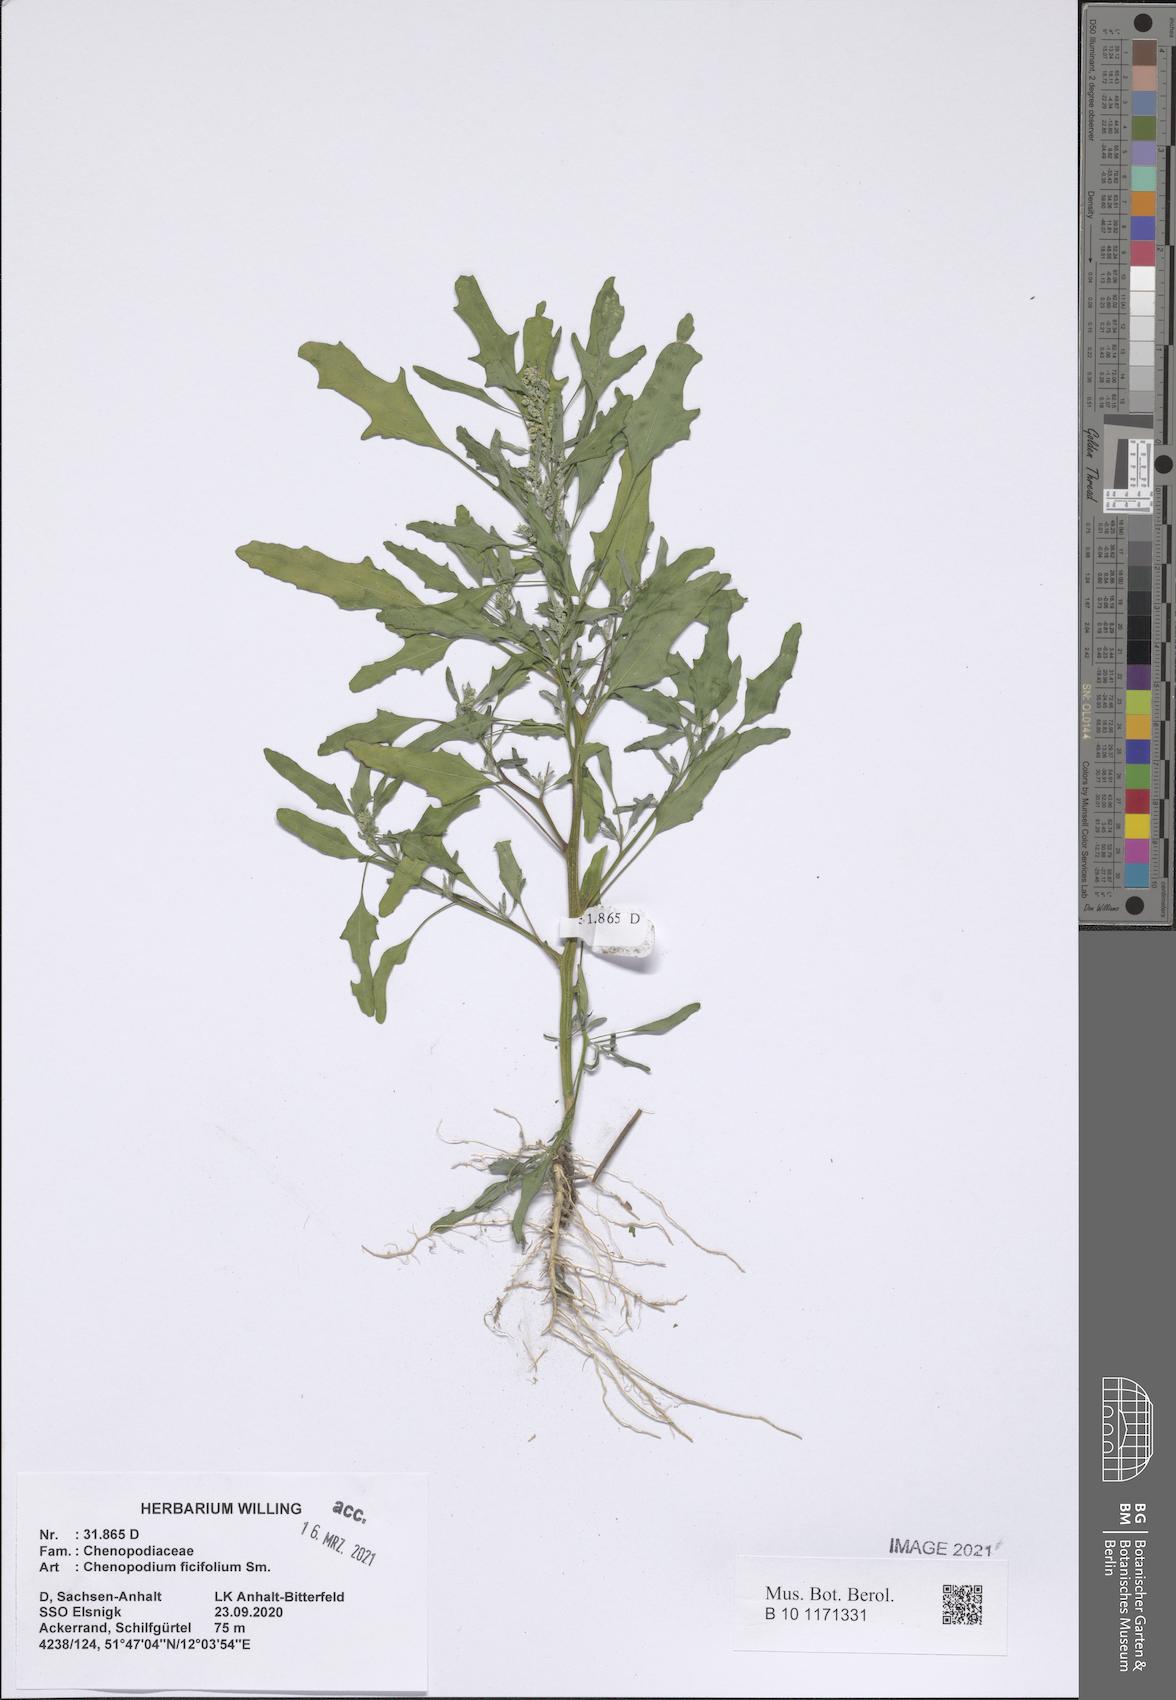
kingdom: Plantae
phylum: Tracheophyta
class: Magnoliopsida
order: Caryophyllales
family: Amaranthaceae
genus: Chenopodium
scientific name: Chenopodium ficifolium
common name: Fig-leaved goosefoot
